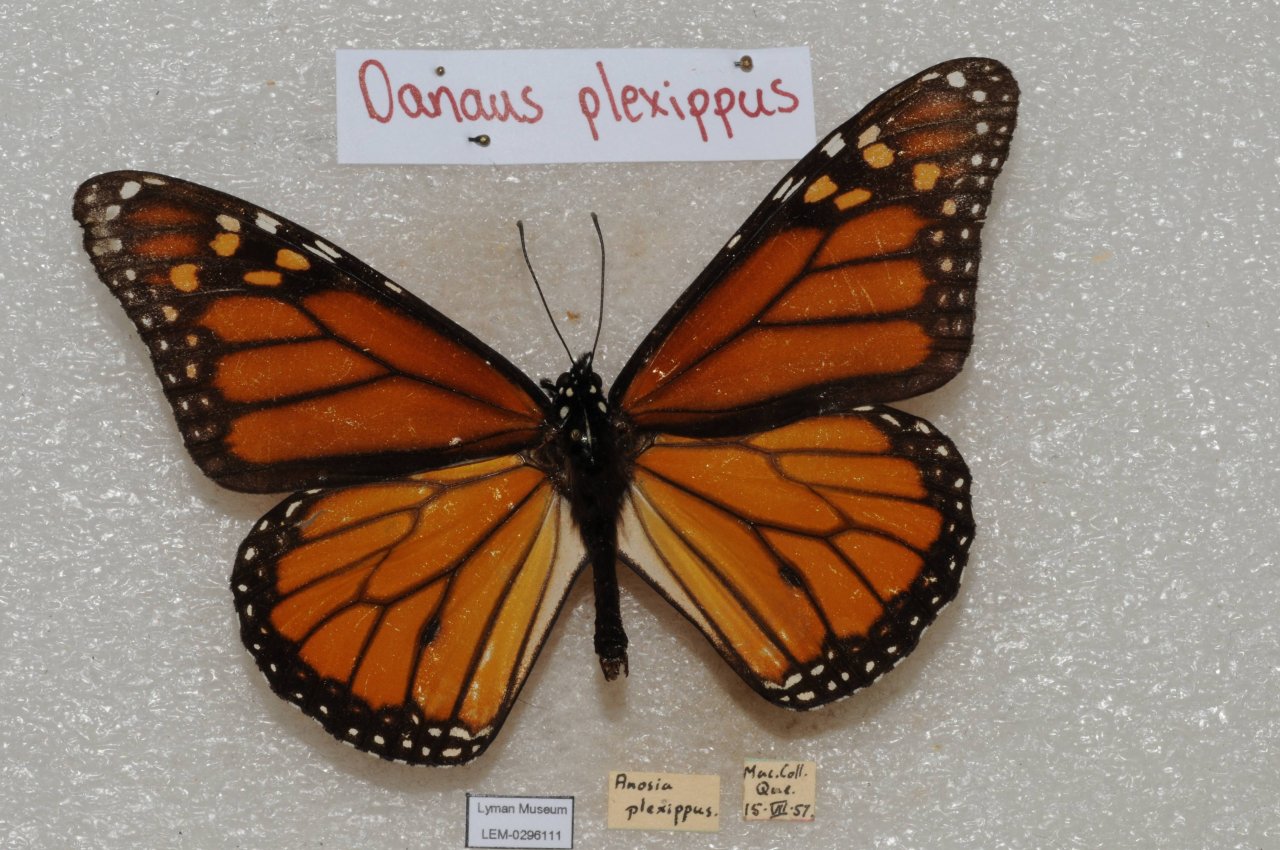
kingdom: Animalia
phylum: Arthropoda
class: Insecta
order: Lepidoptera
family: Nymphalidae
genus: Danaus
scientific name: Danaus plexippus
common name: Monarch
